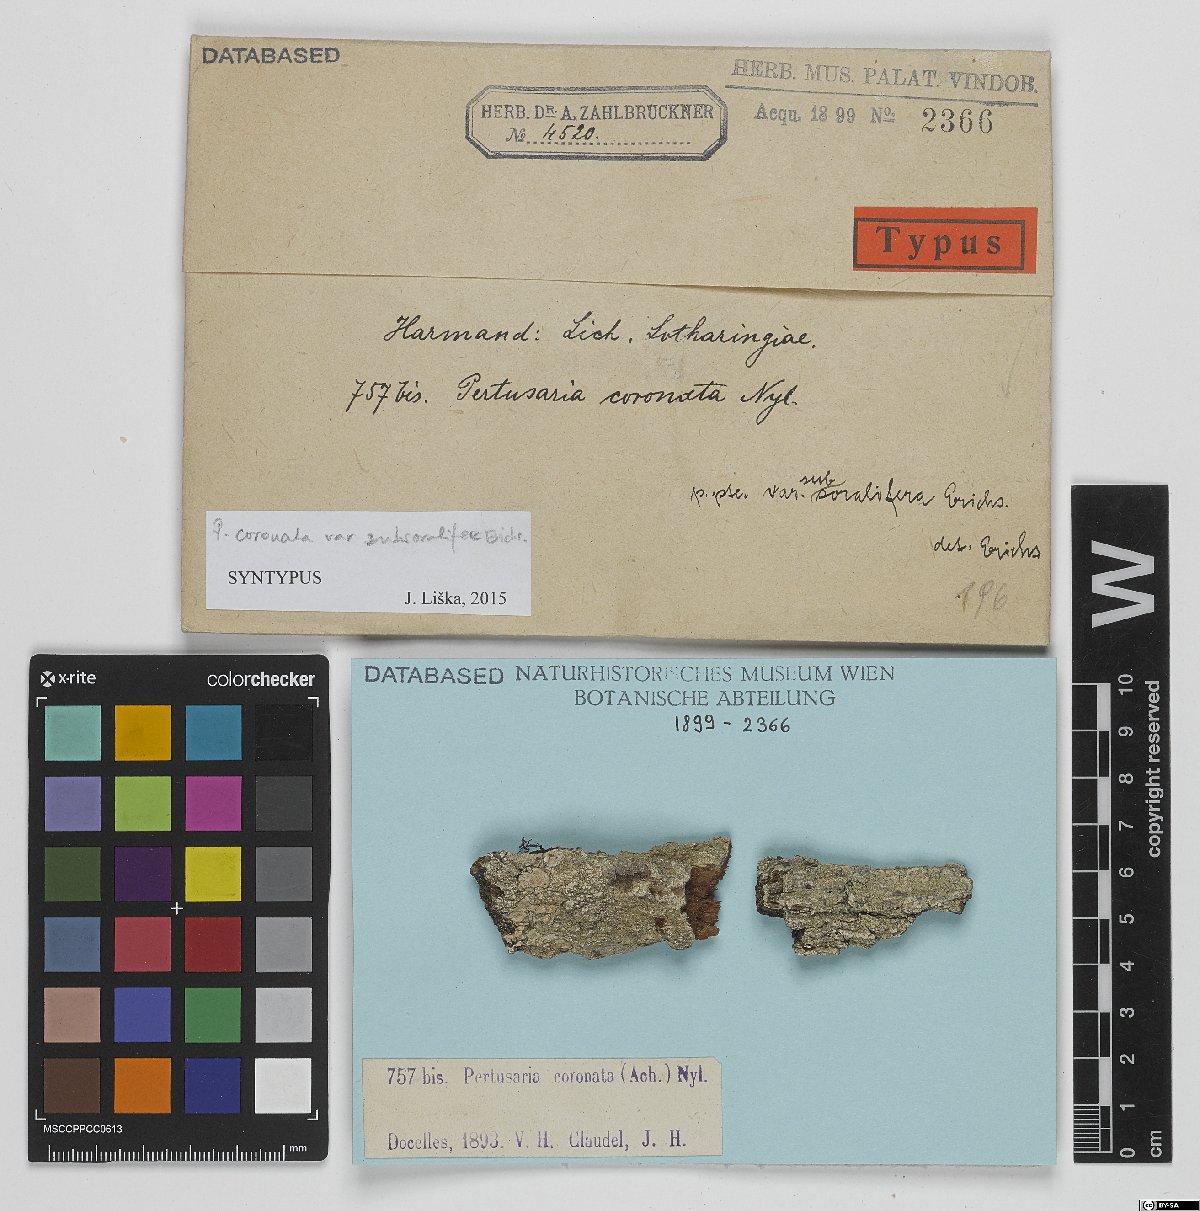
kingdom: Fungi
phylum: Ascomycota
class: Lecanoromycetes
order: Pertusariales
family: Pertusariaceae
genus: Pertusaria
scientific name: Pertusaria coronata
